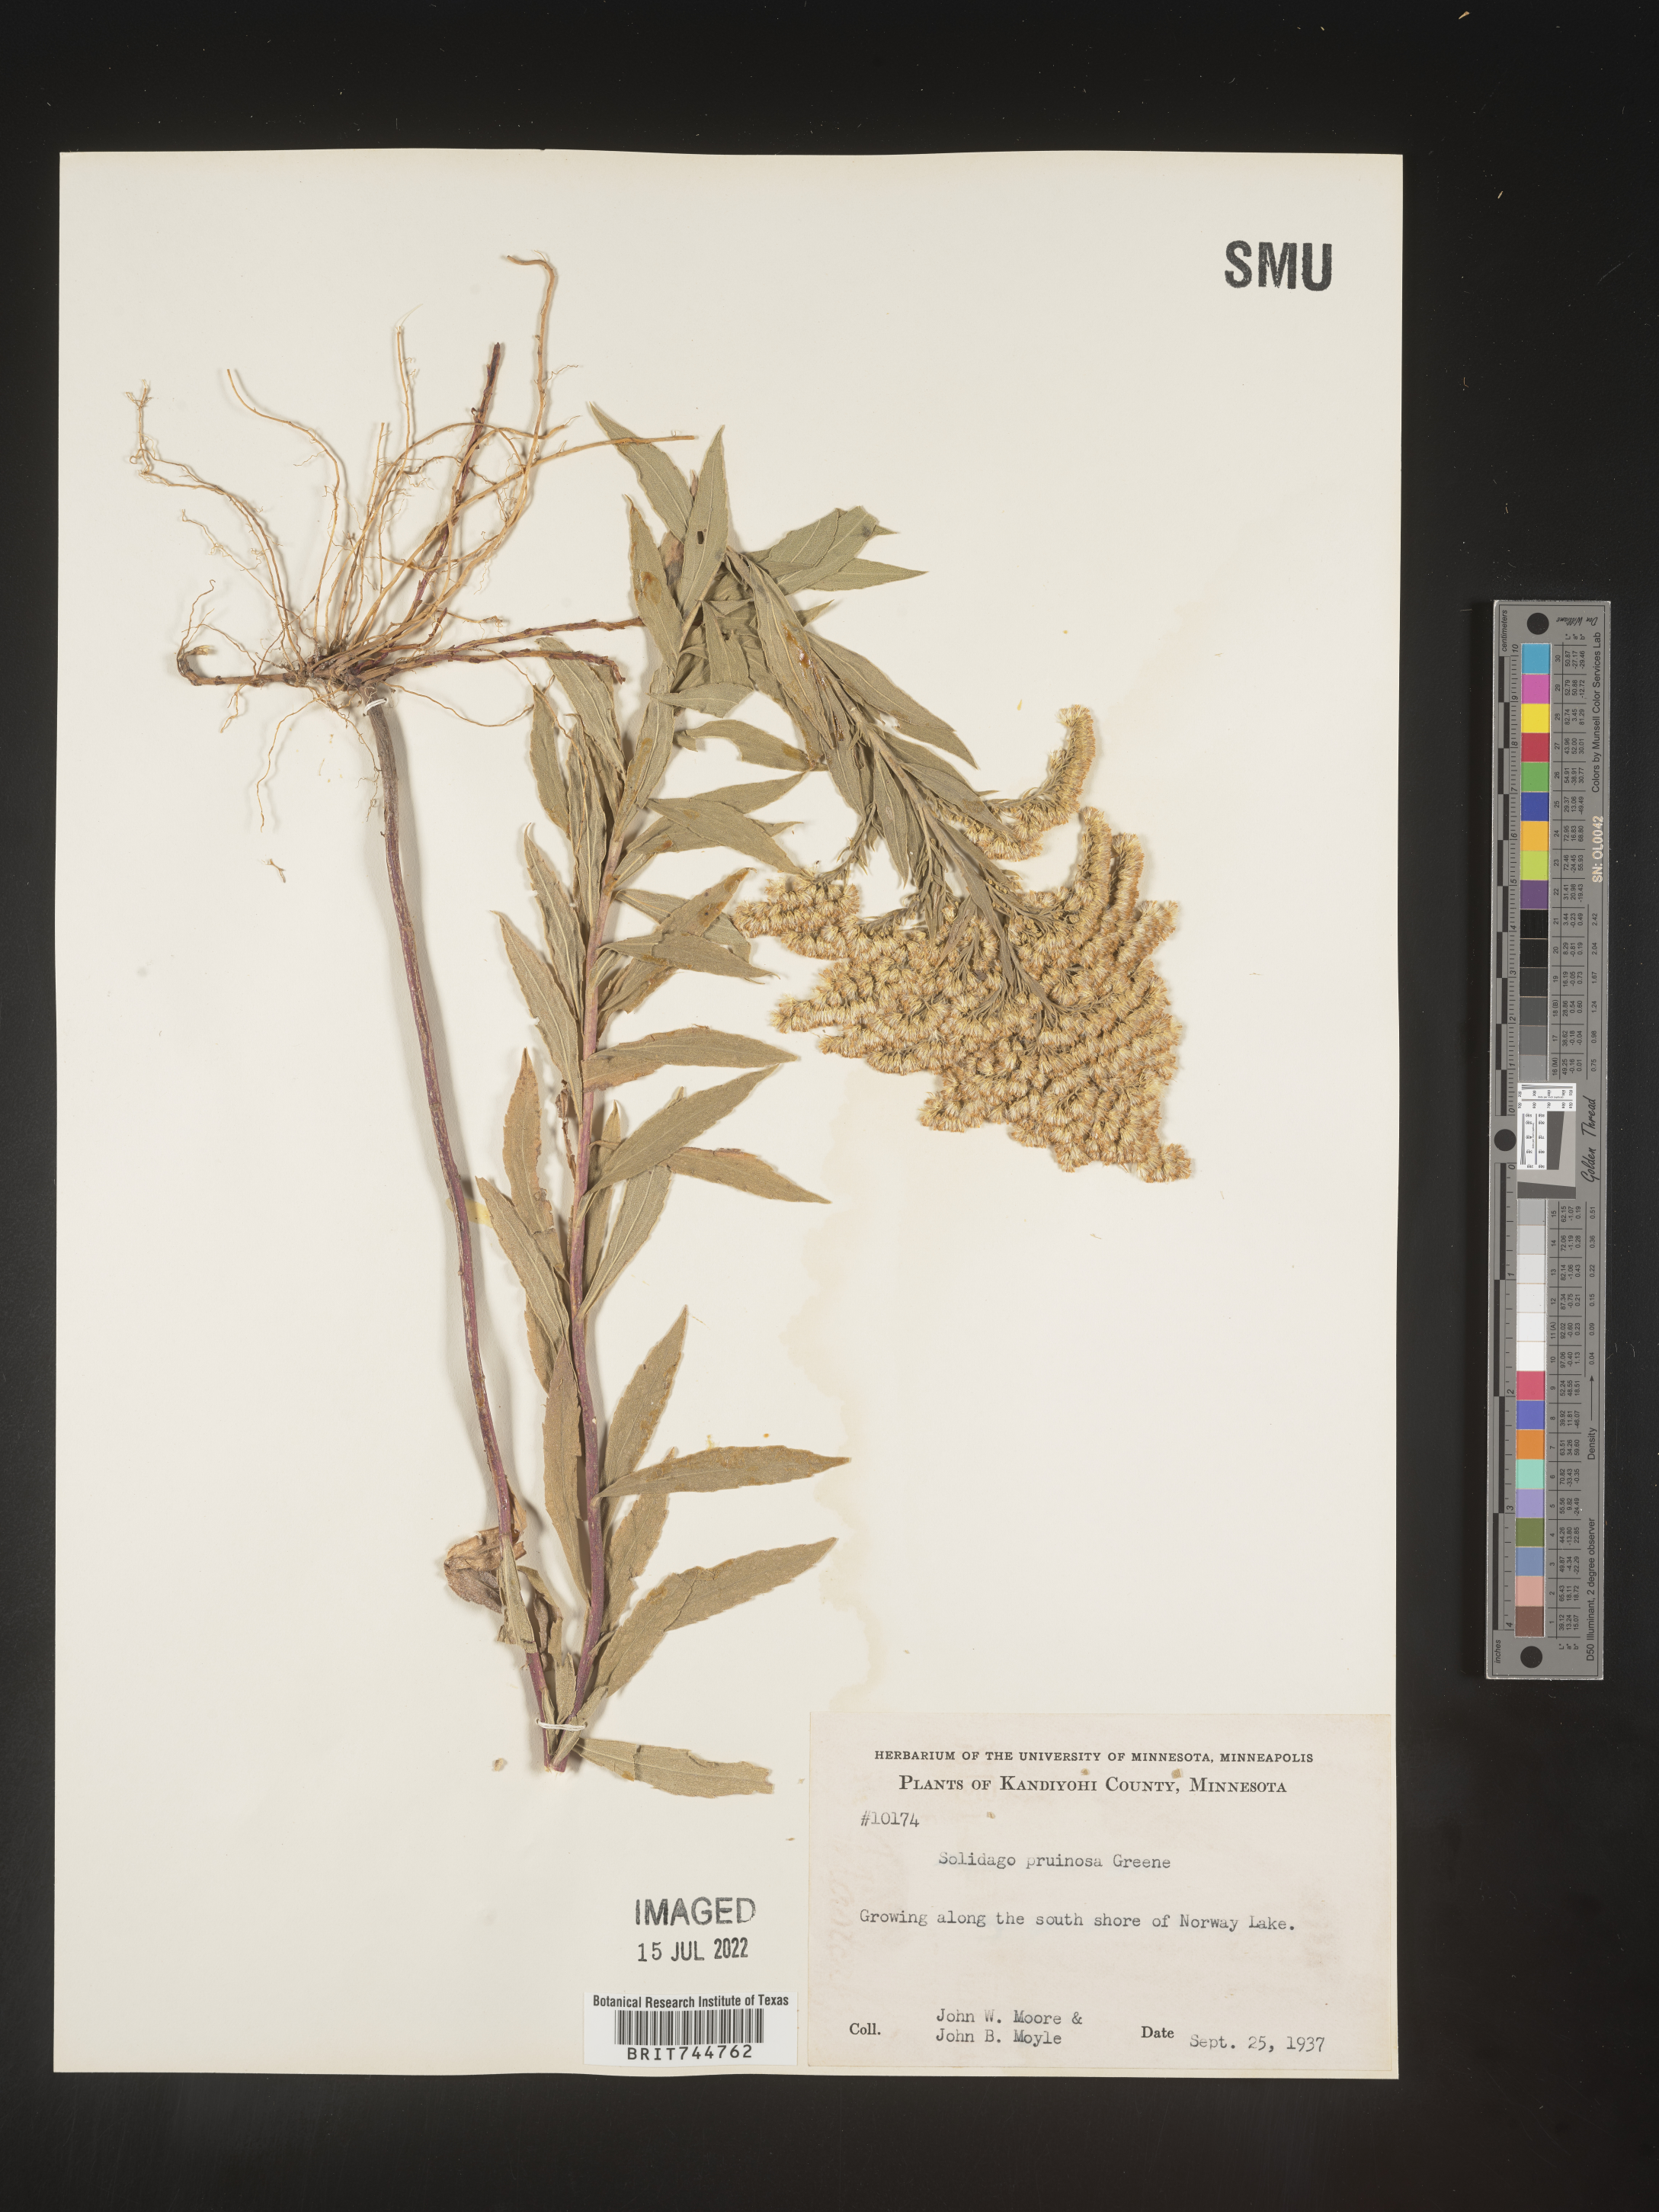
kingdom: Plantae
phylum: Tracheophyta
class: Magnoliopsida
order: Asterales
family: Asteraceae
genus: Solidago
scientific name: Solidago canadensis
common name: Canada goldenrod
